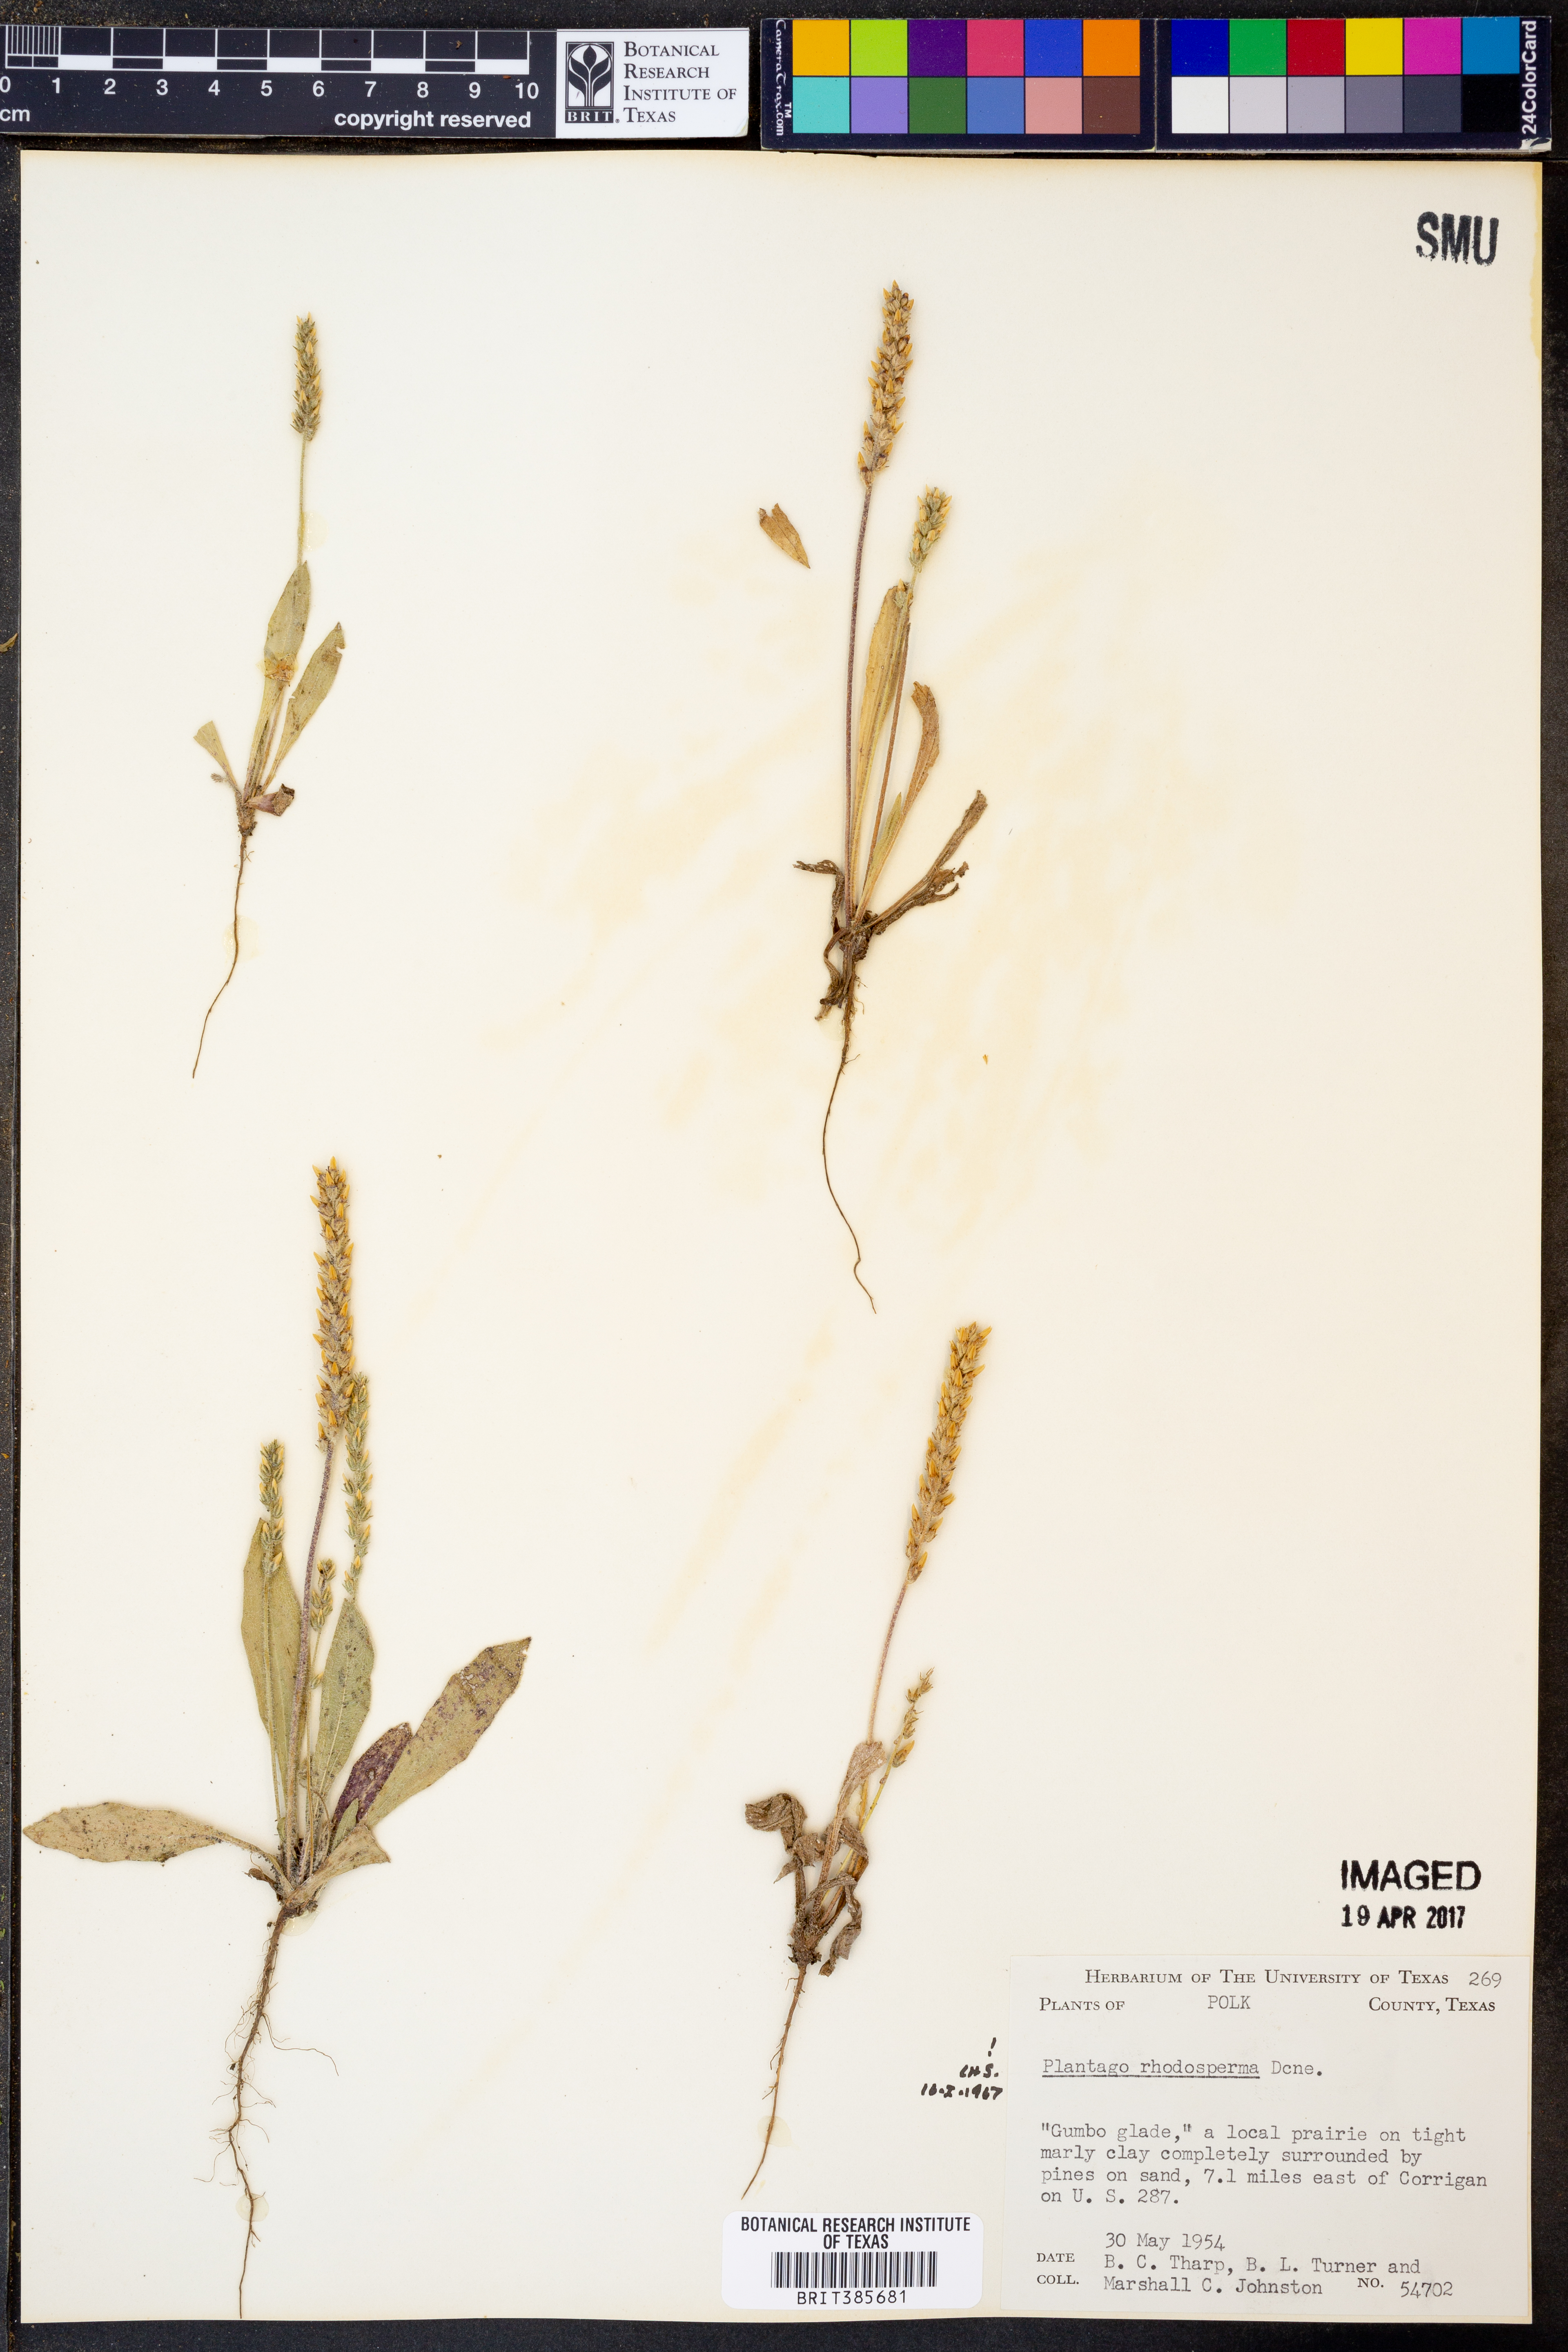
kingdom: Plantae
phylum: Tracheophyta
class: Magnoliopsida
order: Lamiales
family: Plantaginaceae
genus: Plantago
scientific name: Plantago rhodosperma
